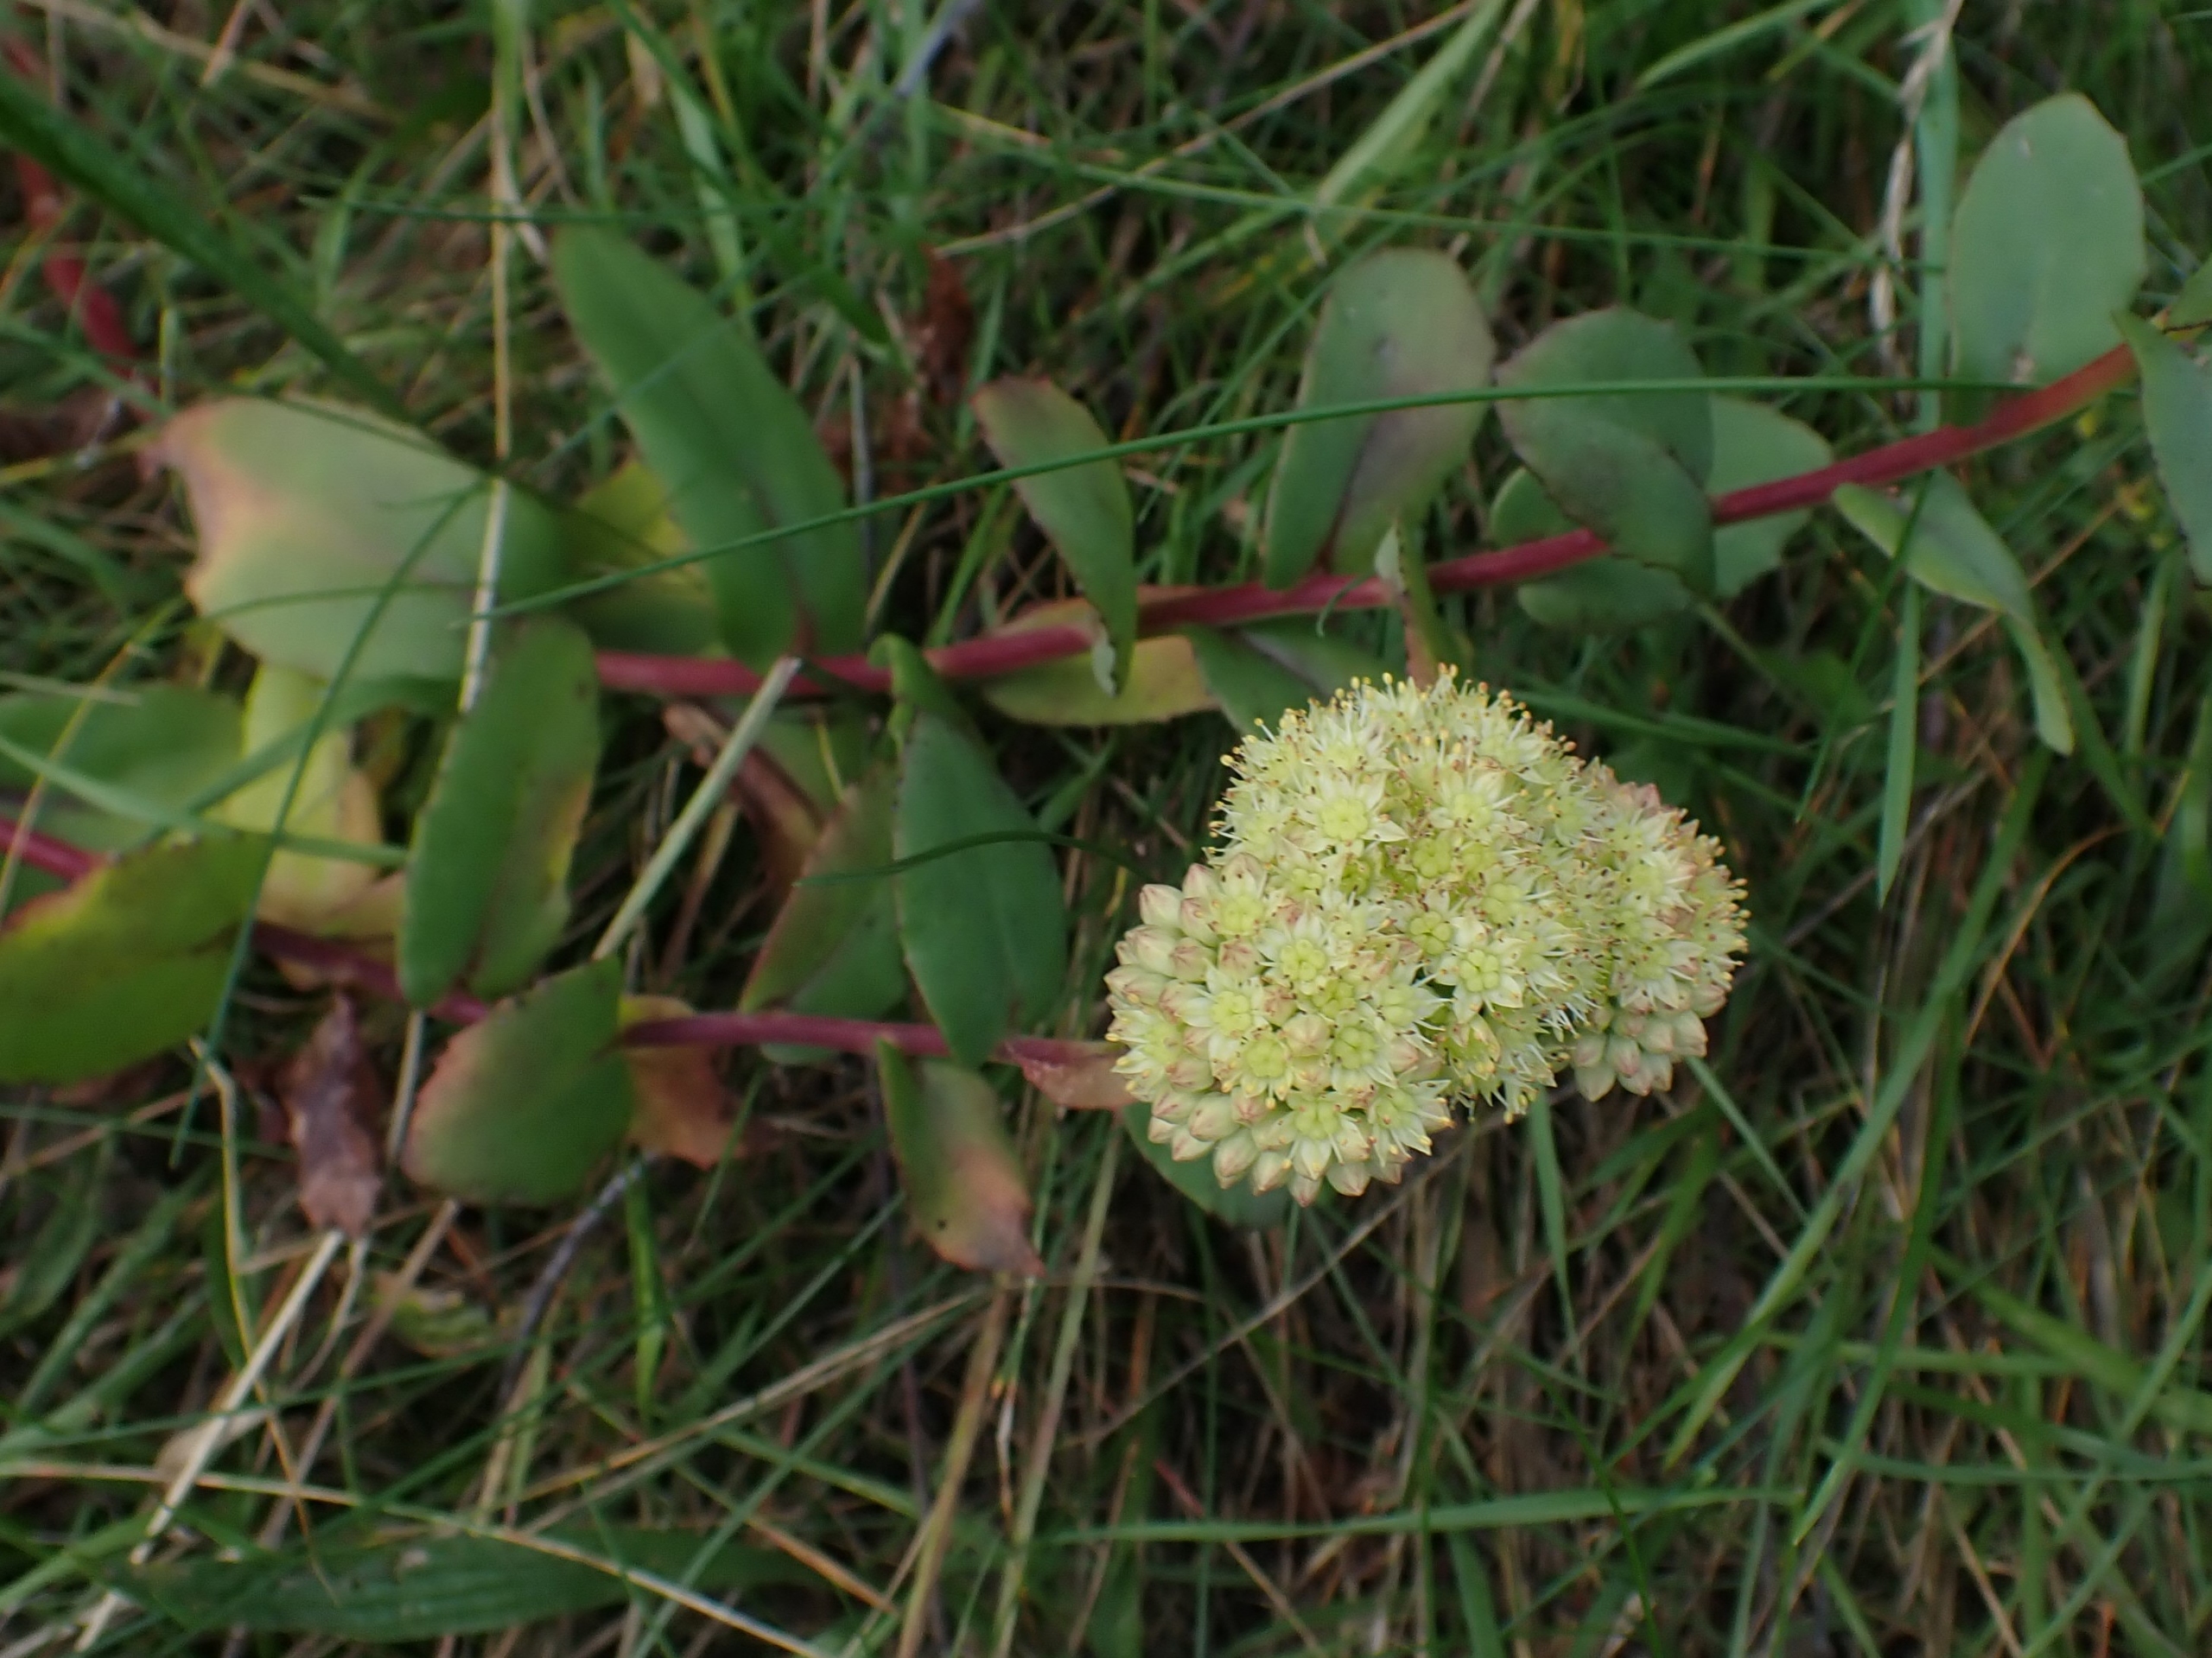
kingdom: Plantae
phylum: Tracheophyta
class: Magnoliopsida
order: Saxifragales
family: Crassulaceae
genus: Hylotelephium
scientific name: Hylotelephium maximum
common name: Almindelig sankthansurt
